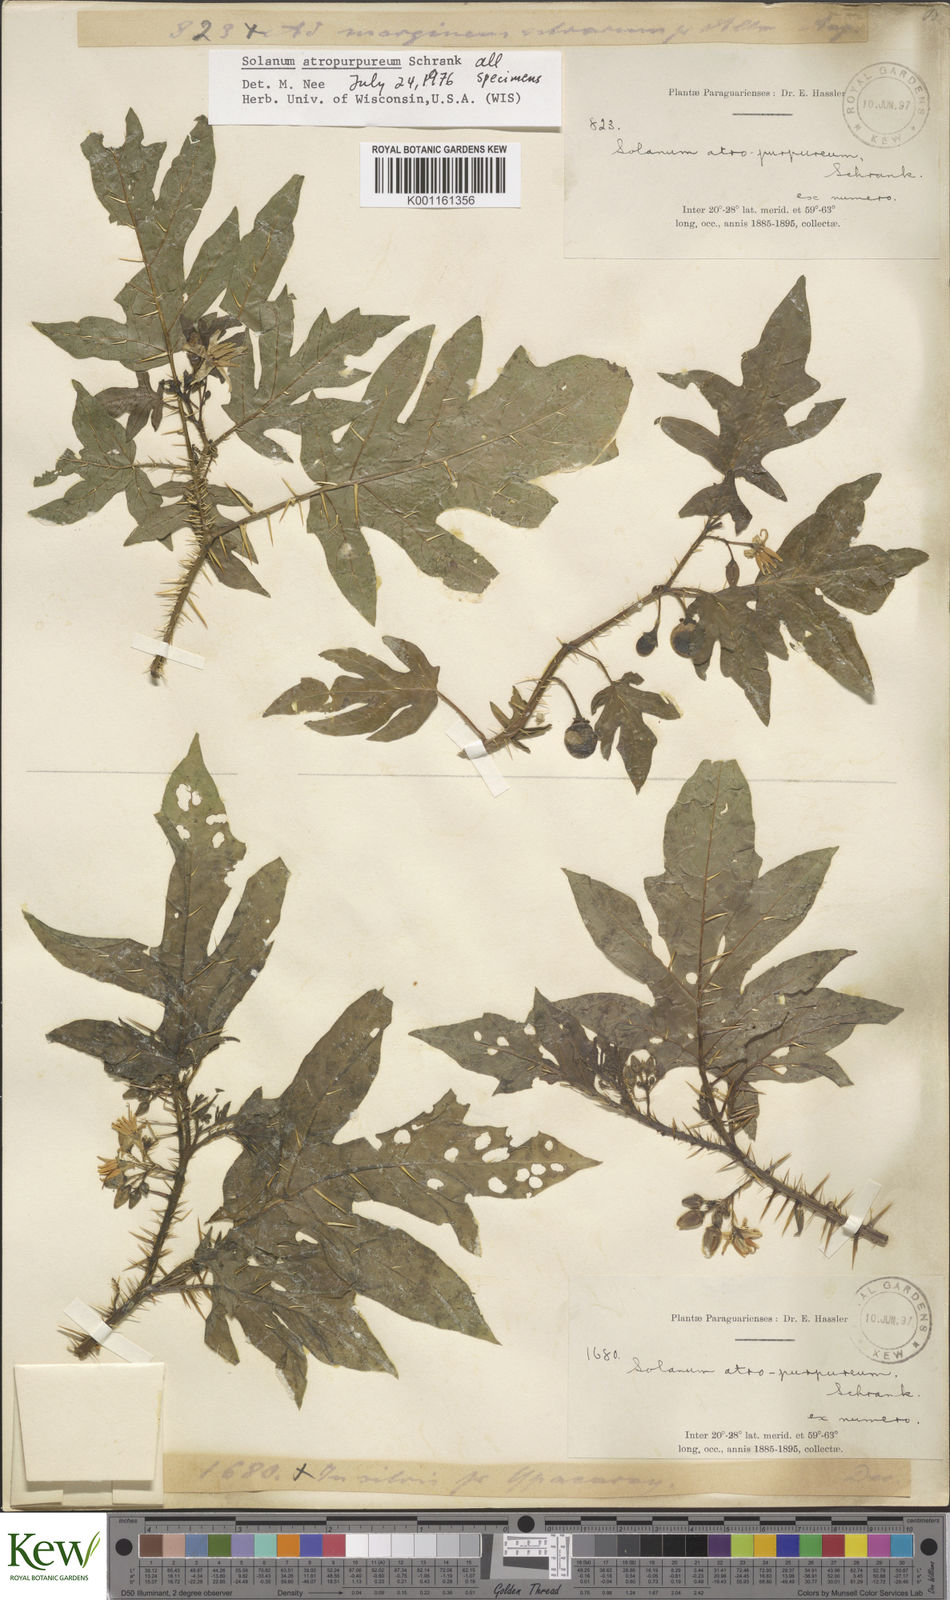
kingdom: Plantae
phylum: Tracheophyta
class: Magnoliopsida
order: Solanales
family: Solanaceae
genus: Solanum
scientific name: Solanum atropurpureum
